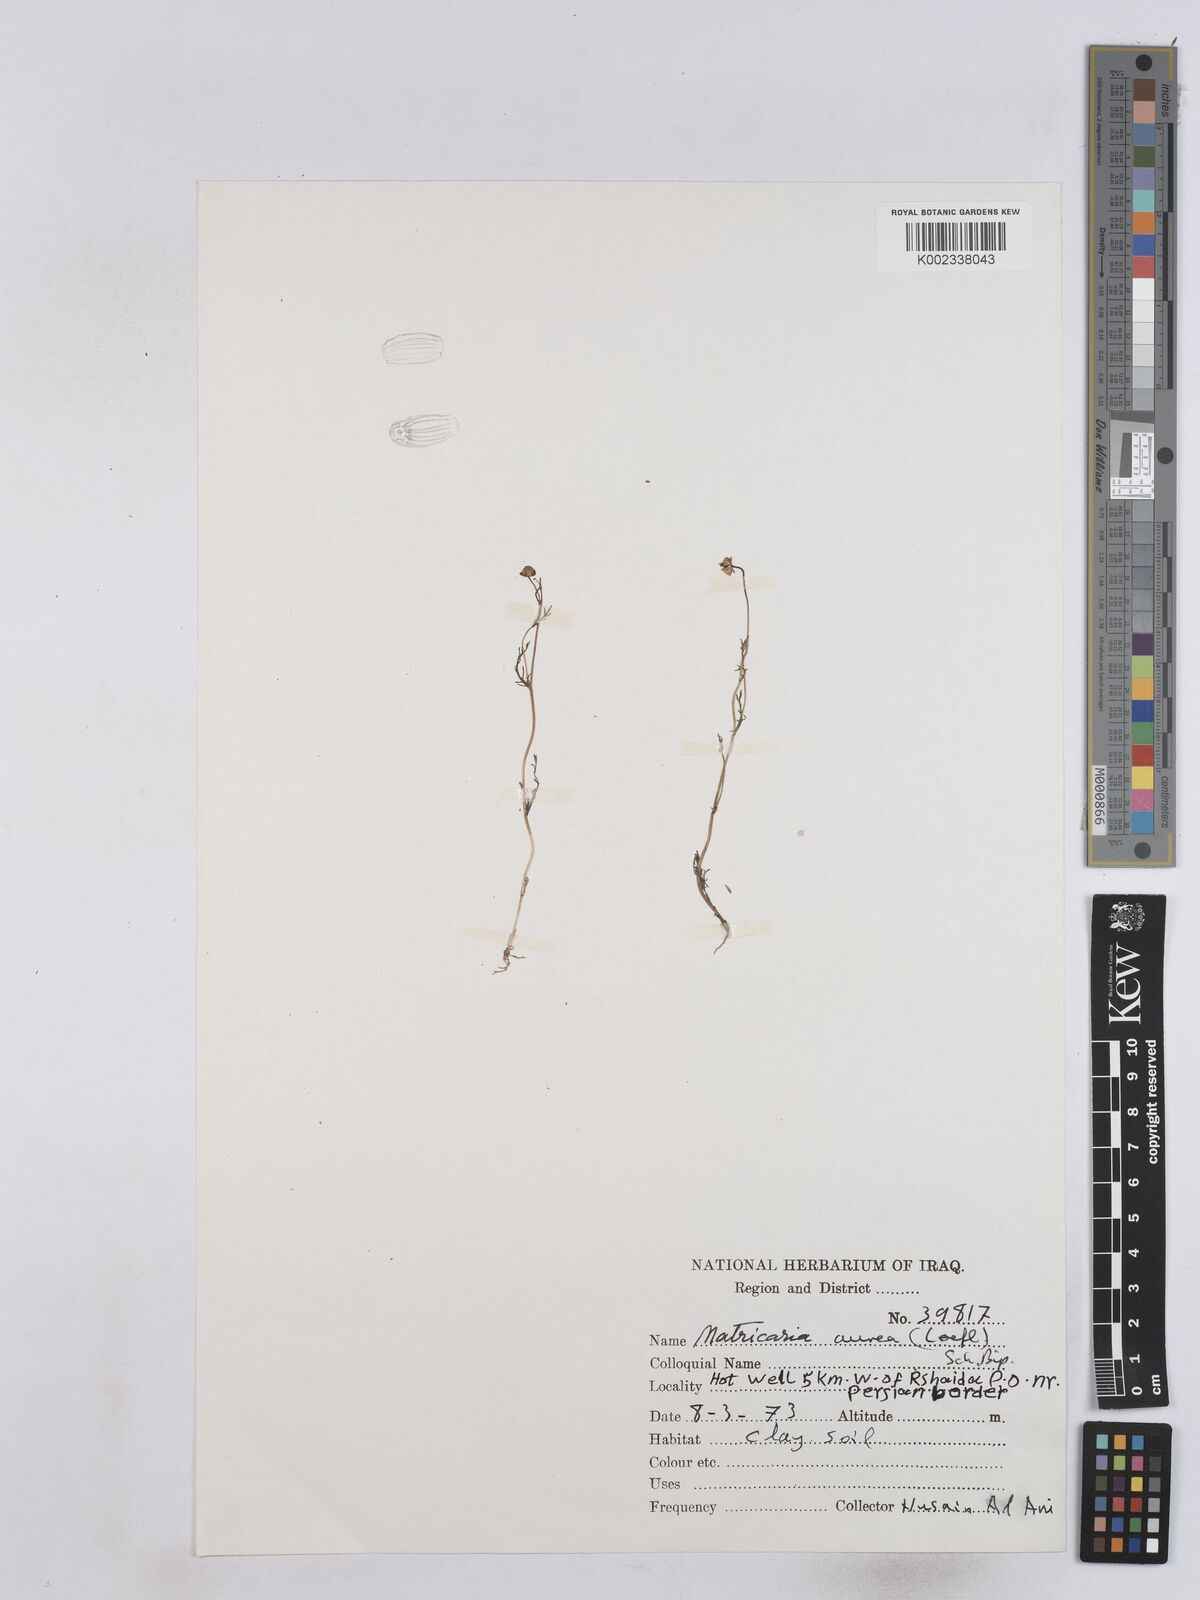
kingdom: Plantae
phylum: Tracheophyta
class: Magnoliopsida
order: Asterales
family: Asteraceae
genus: Matricaria
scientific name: Matricaria aurea
